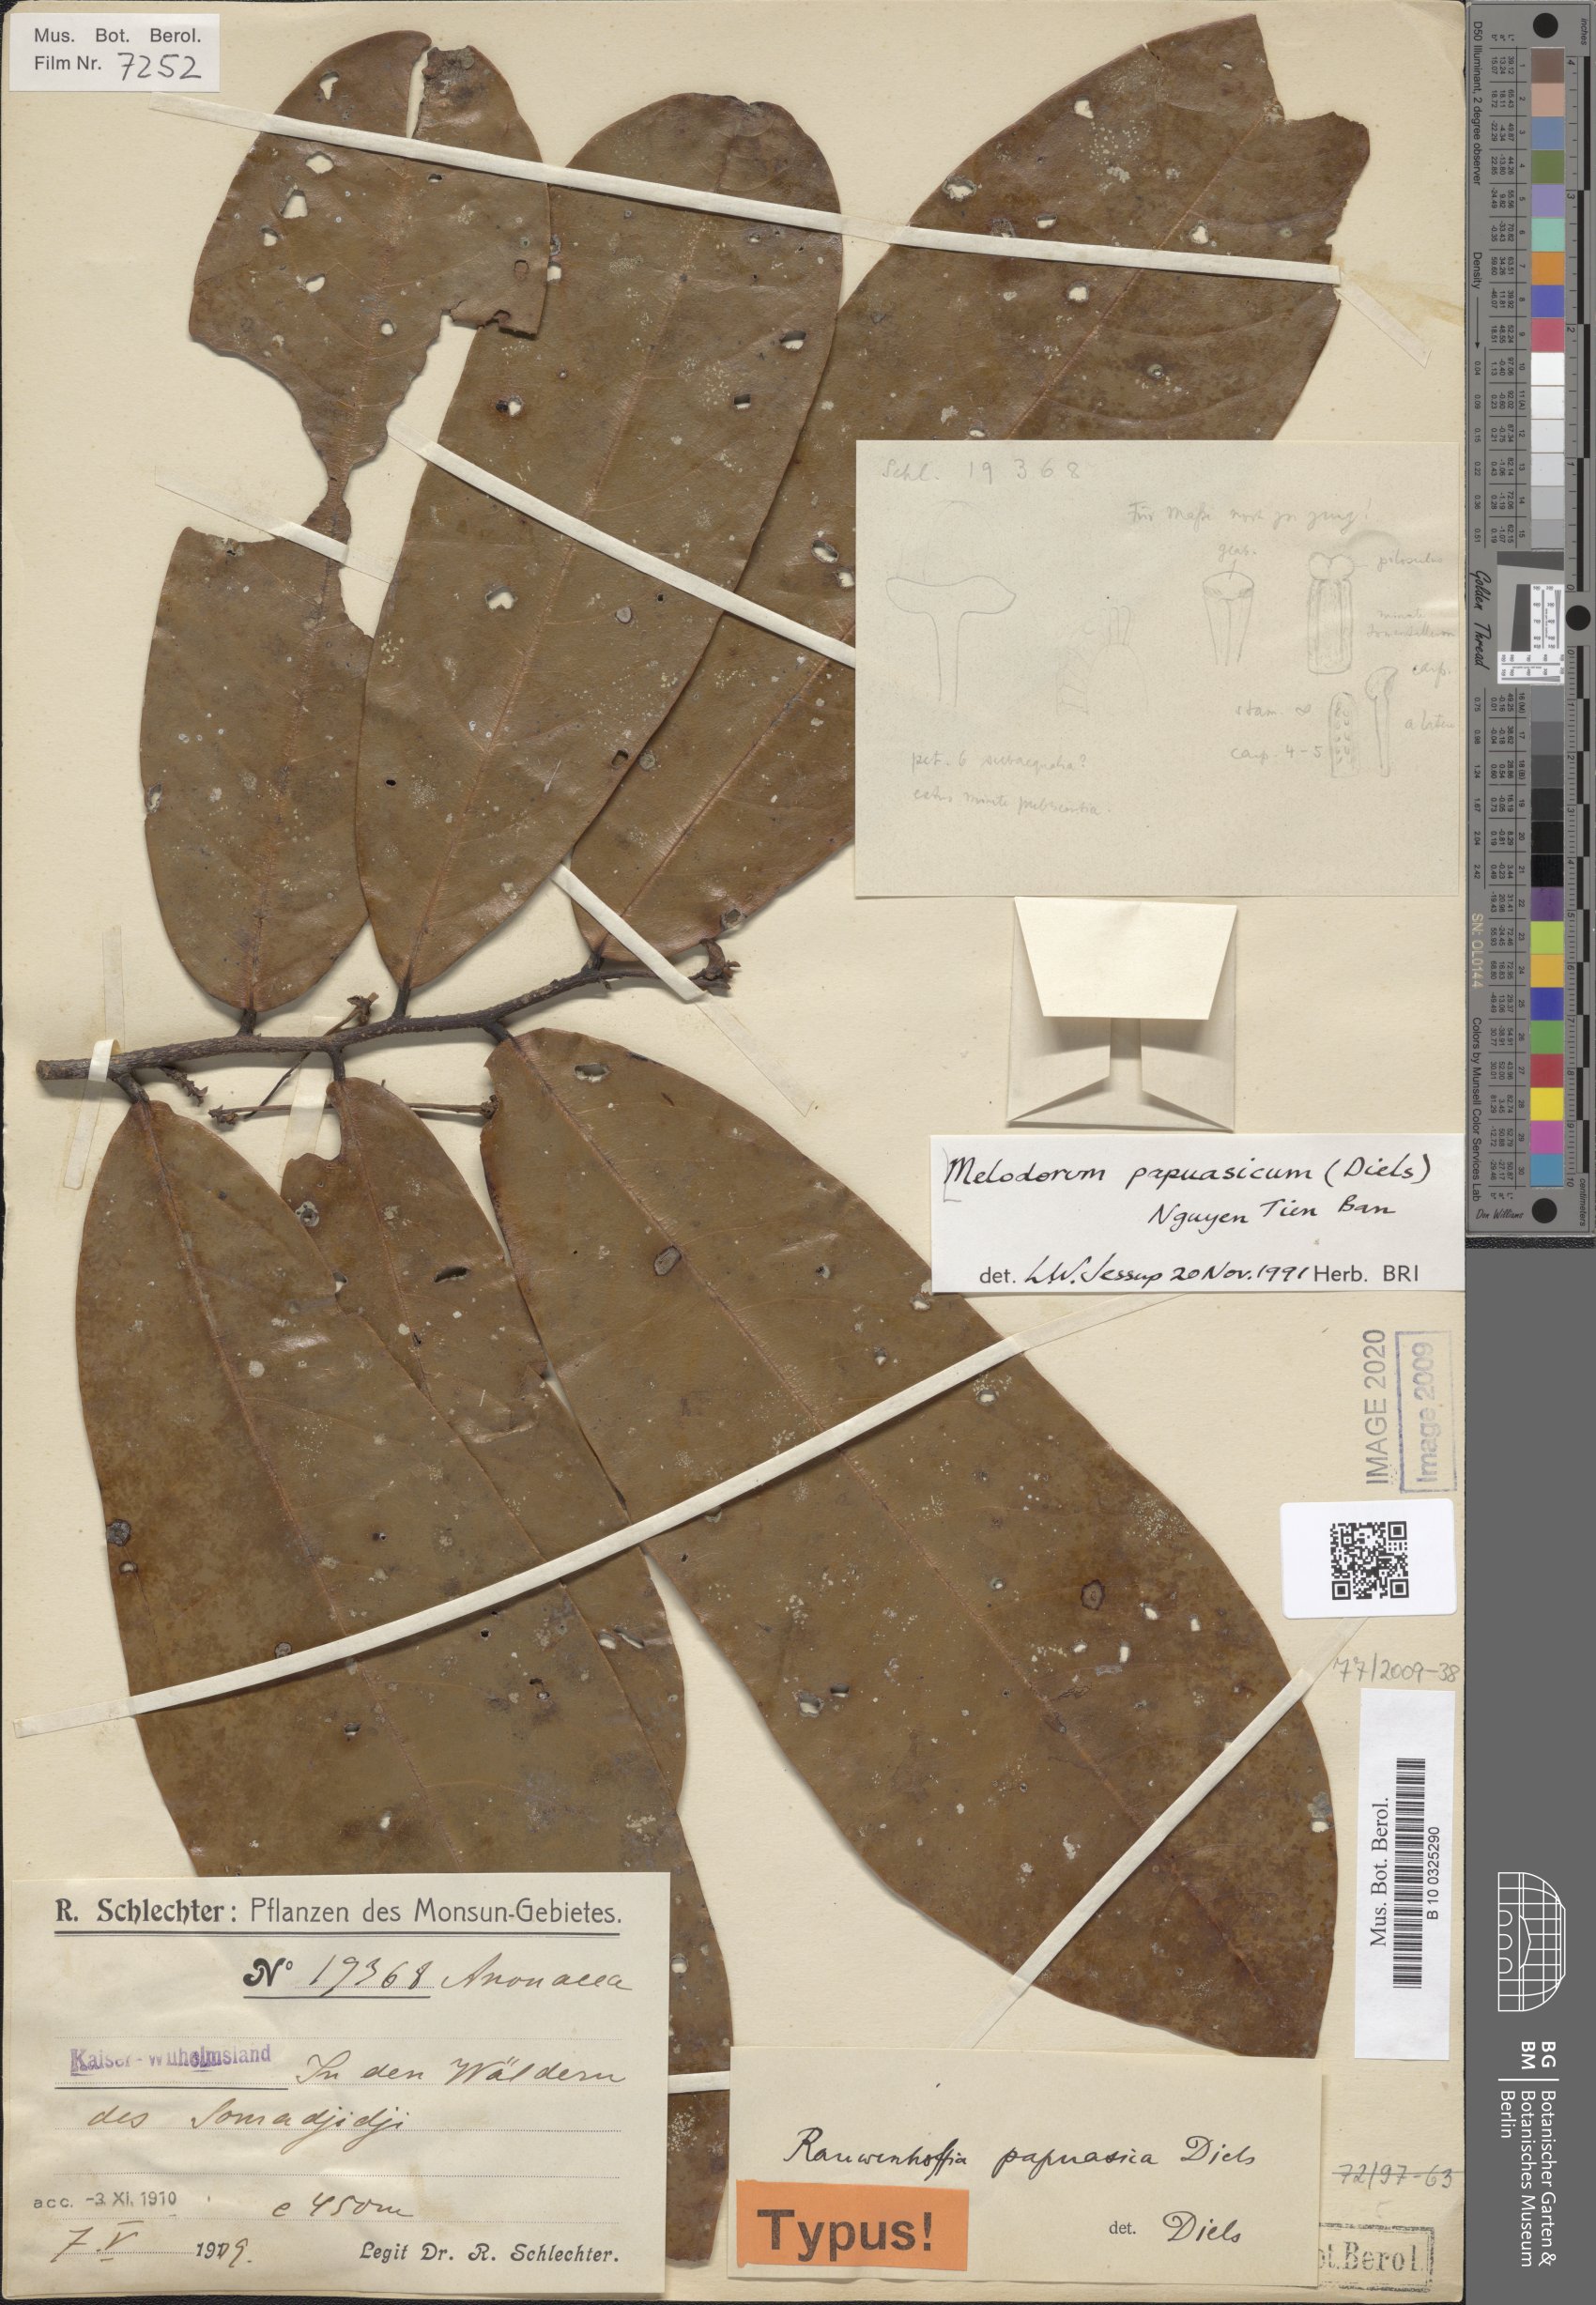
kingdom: Plantae
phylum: Tracheophyta
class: Magnoliopsida
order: Magnoliales
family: Annonaceae
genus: Melodorum
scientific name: Melodorum papuasicum
